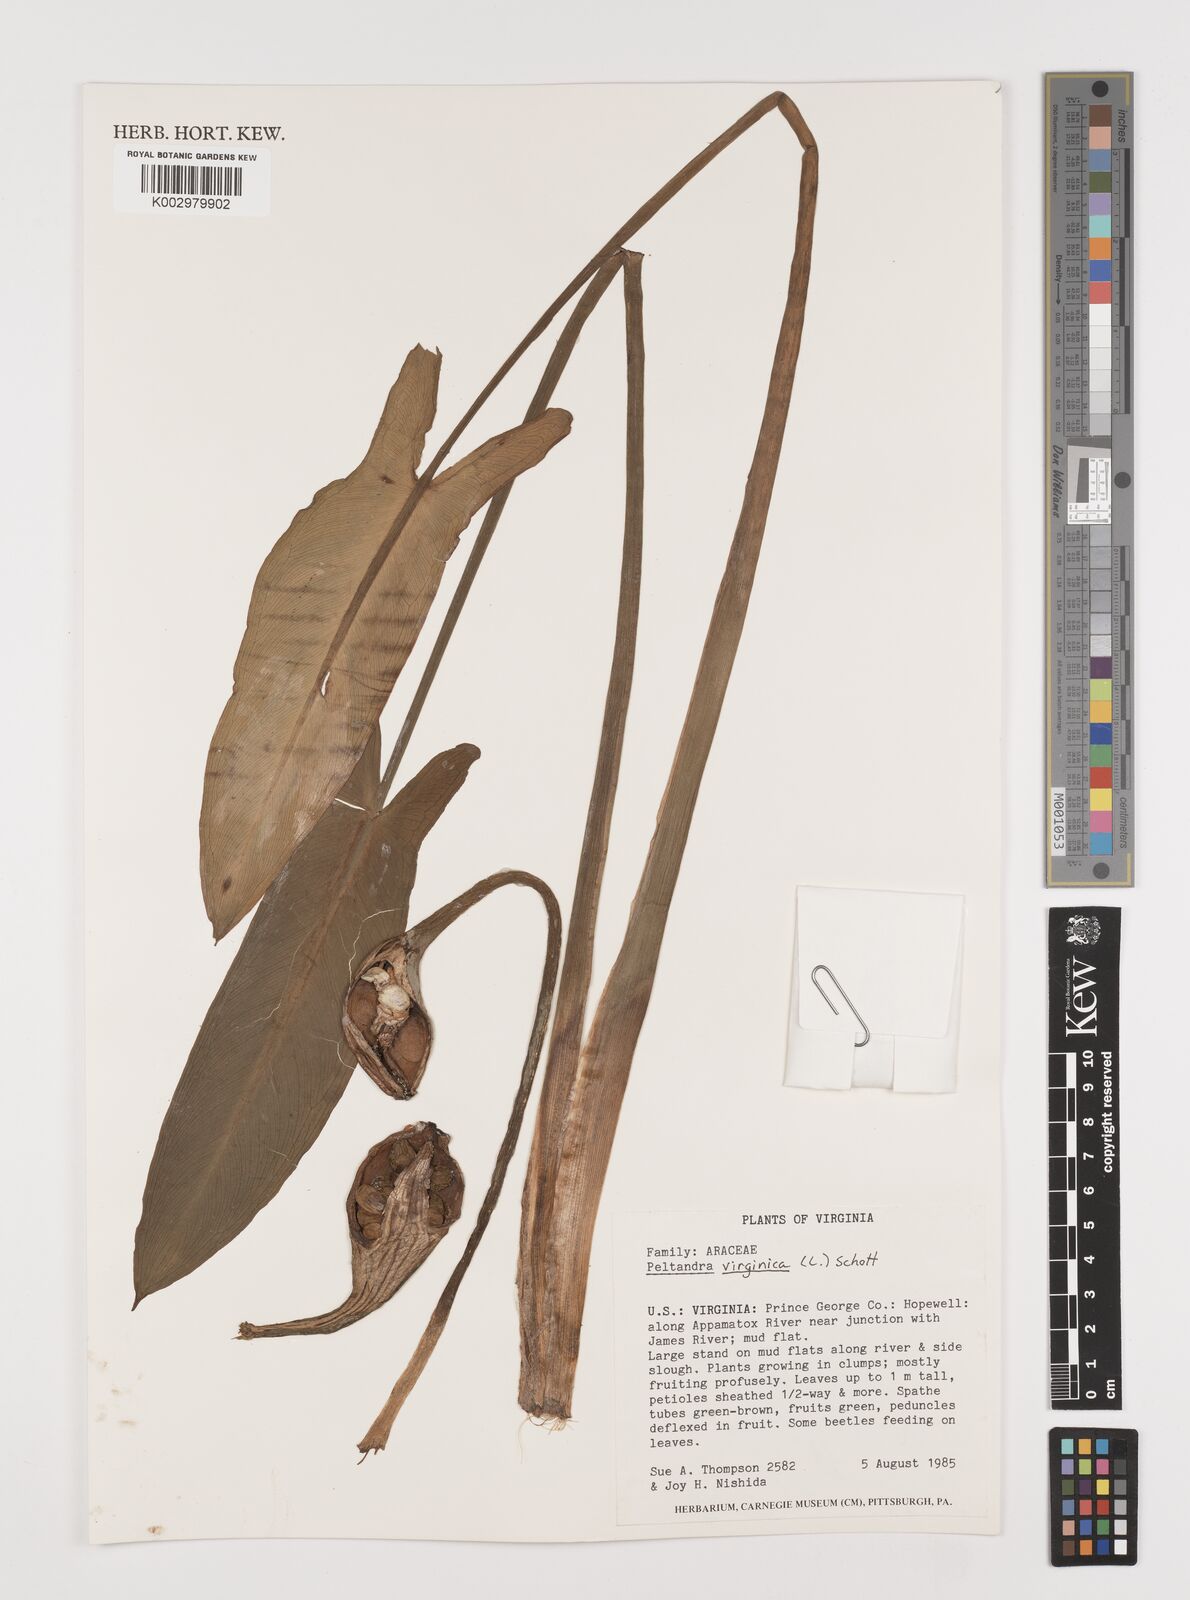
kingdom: Plantae
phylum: Tracheophyta
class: Liliopsida
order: Alismatales
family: Araceae
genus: Peltandra
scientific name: Peltandra virginica
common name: Arrow arum
